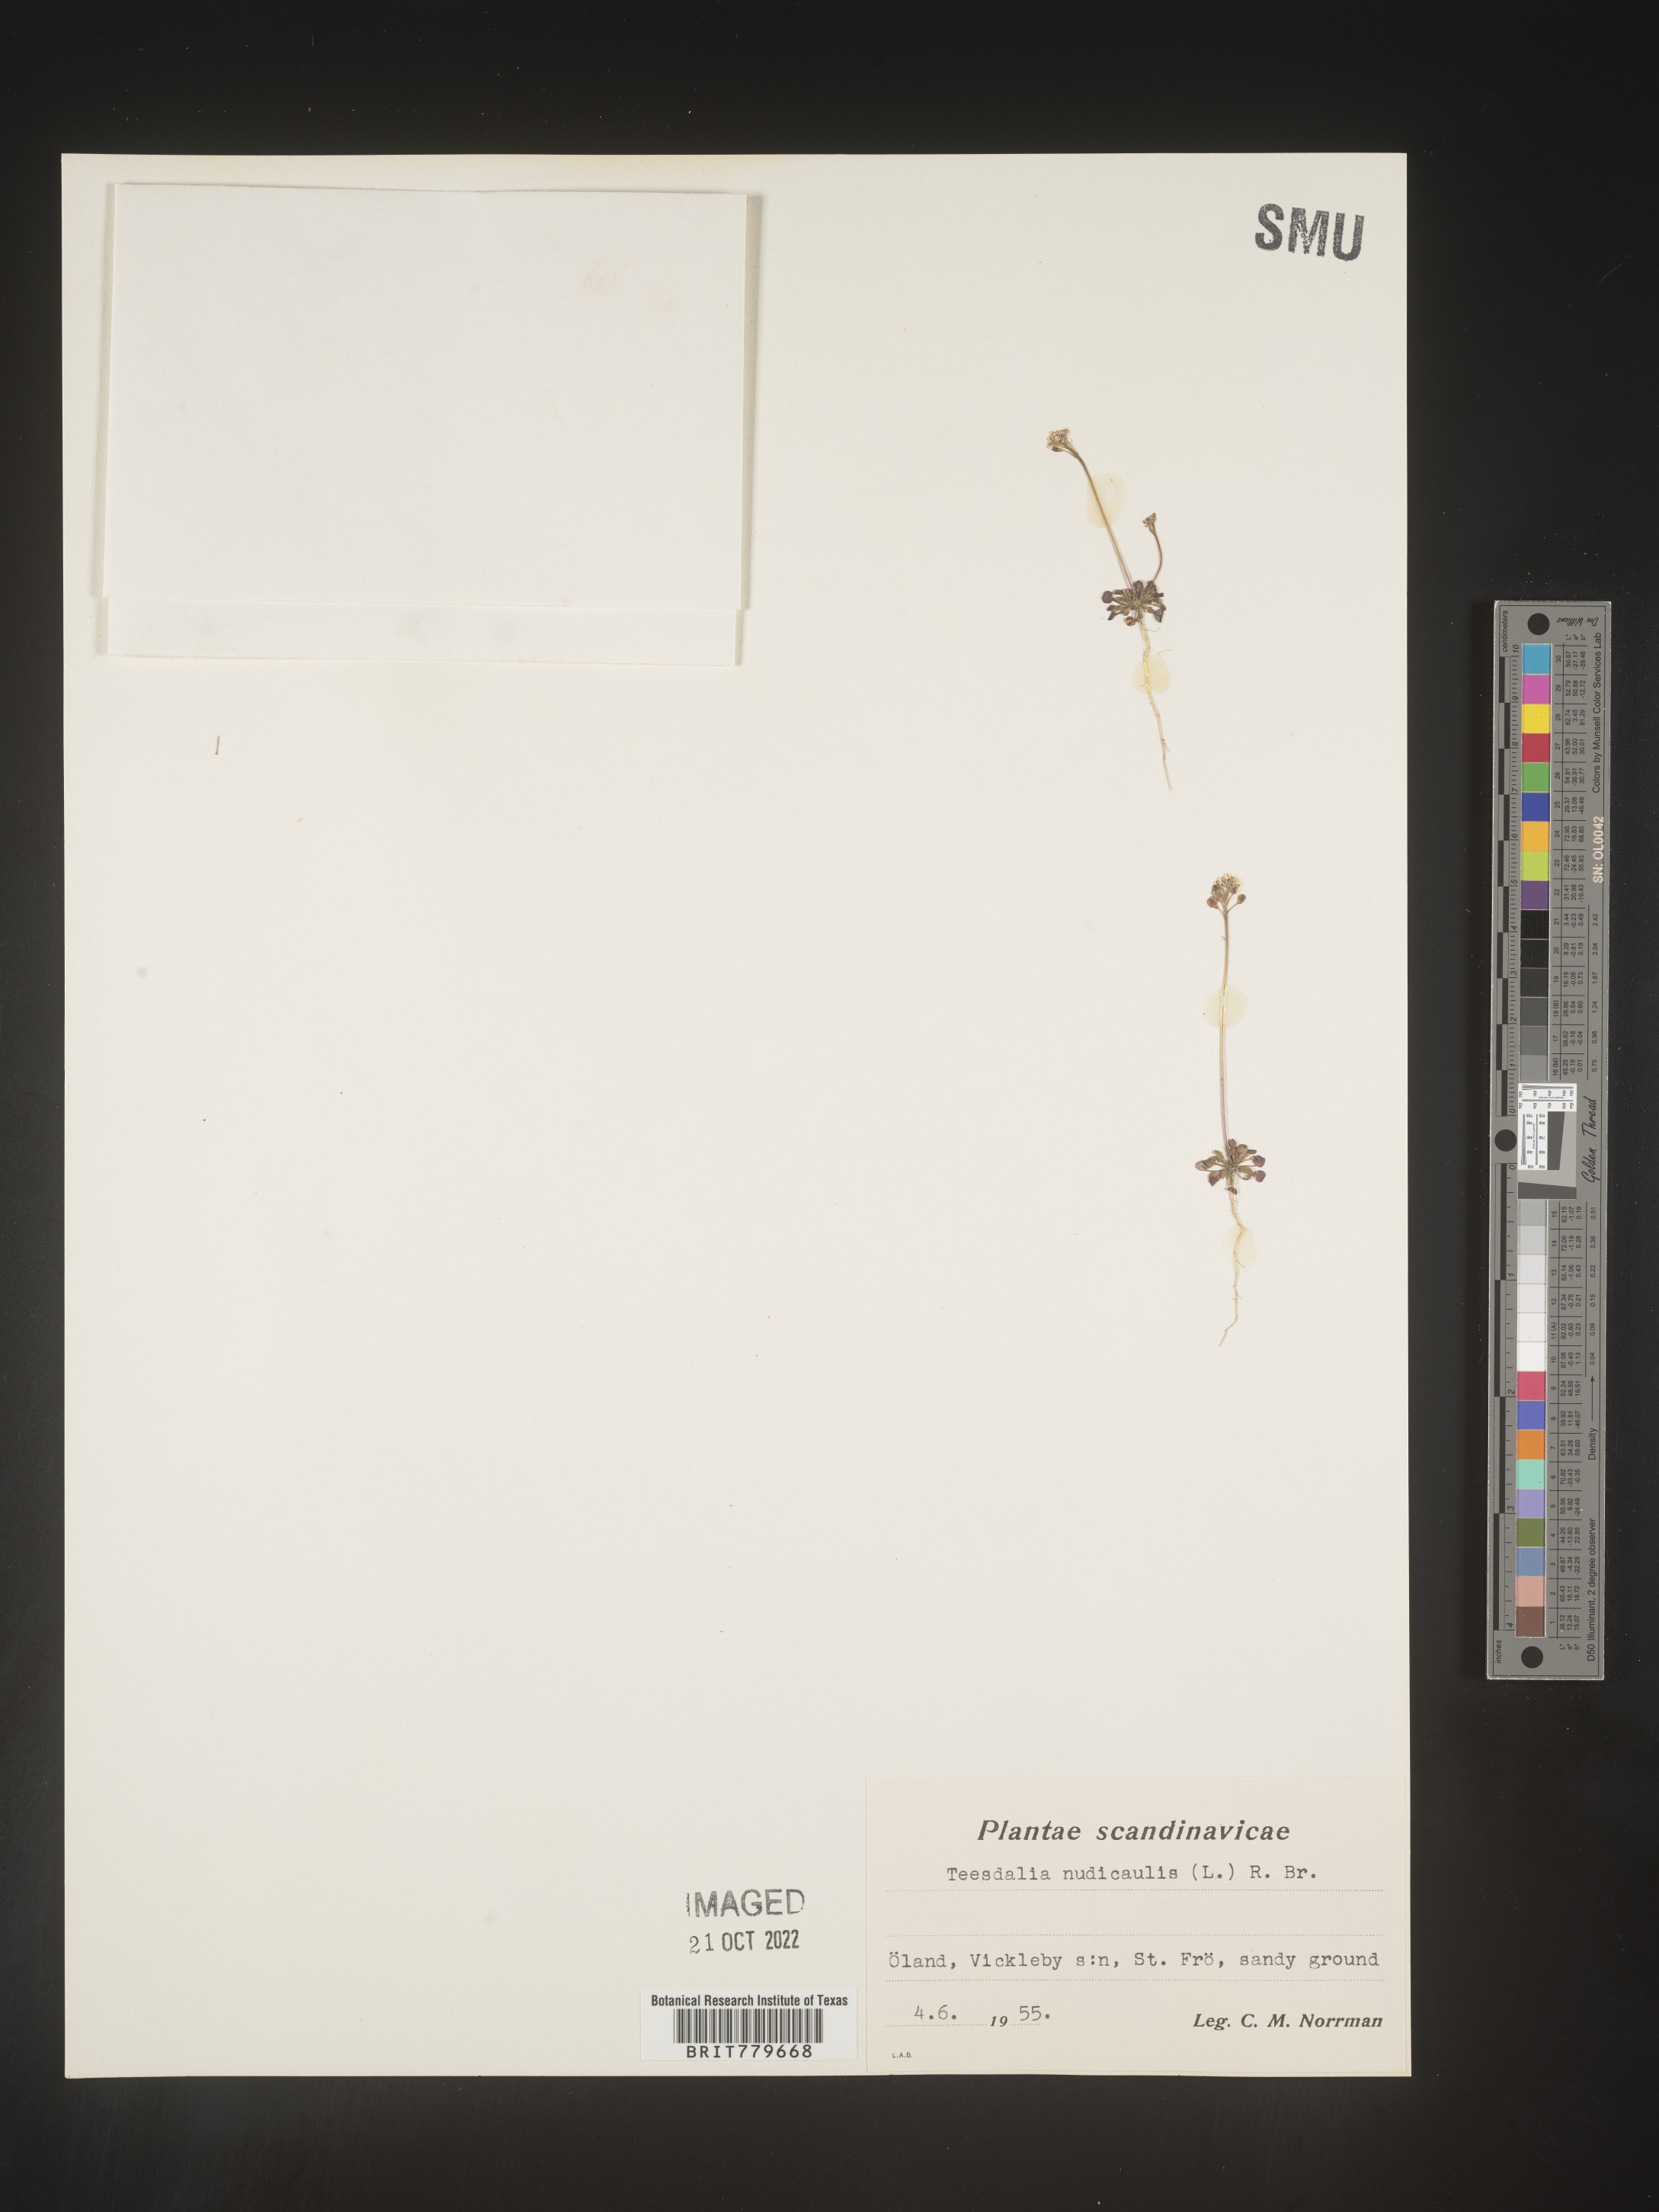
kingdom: Plantae
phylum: Tracheophyta
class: Magnoliopsida
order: Brassicales
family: Brassicaceae
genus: Teesdalia
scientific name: Teesdalia
